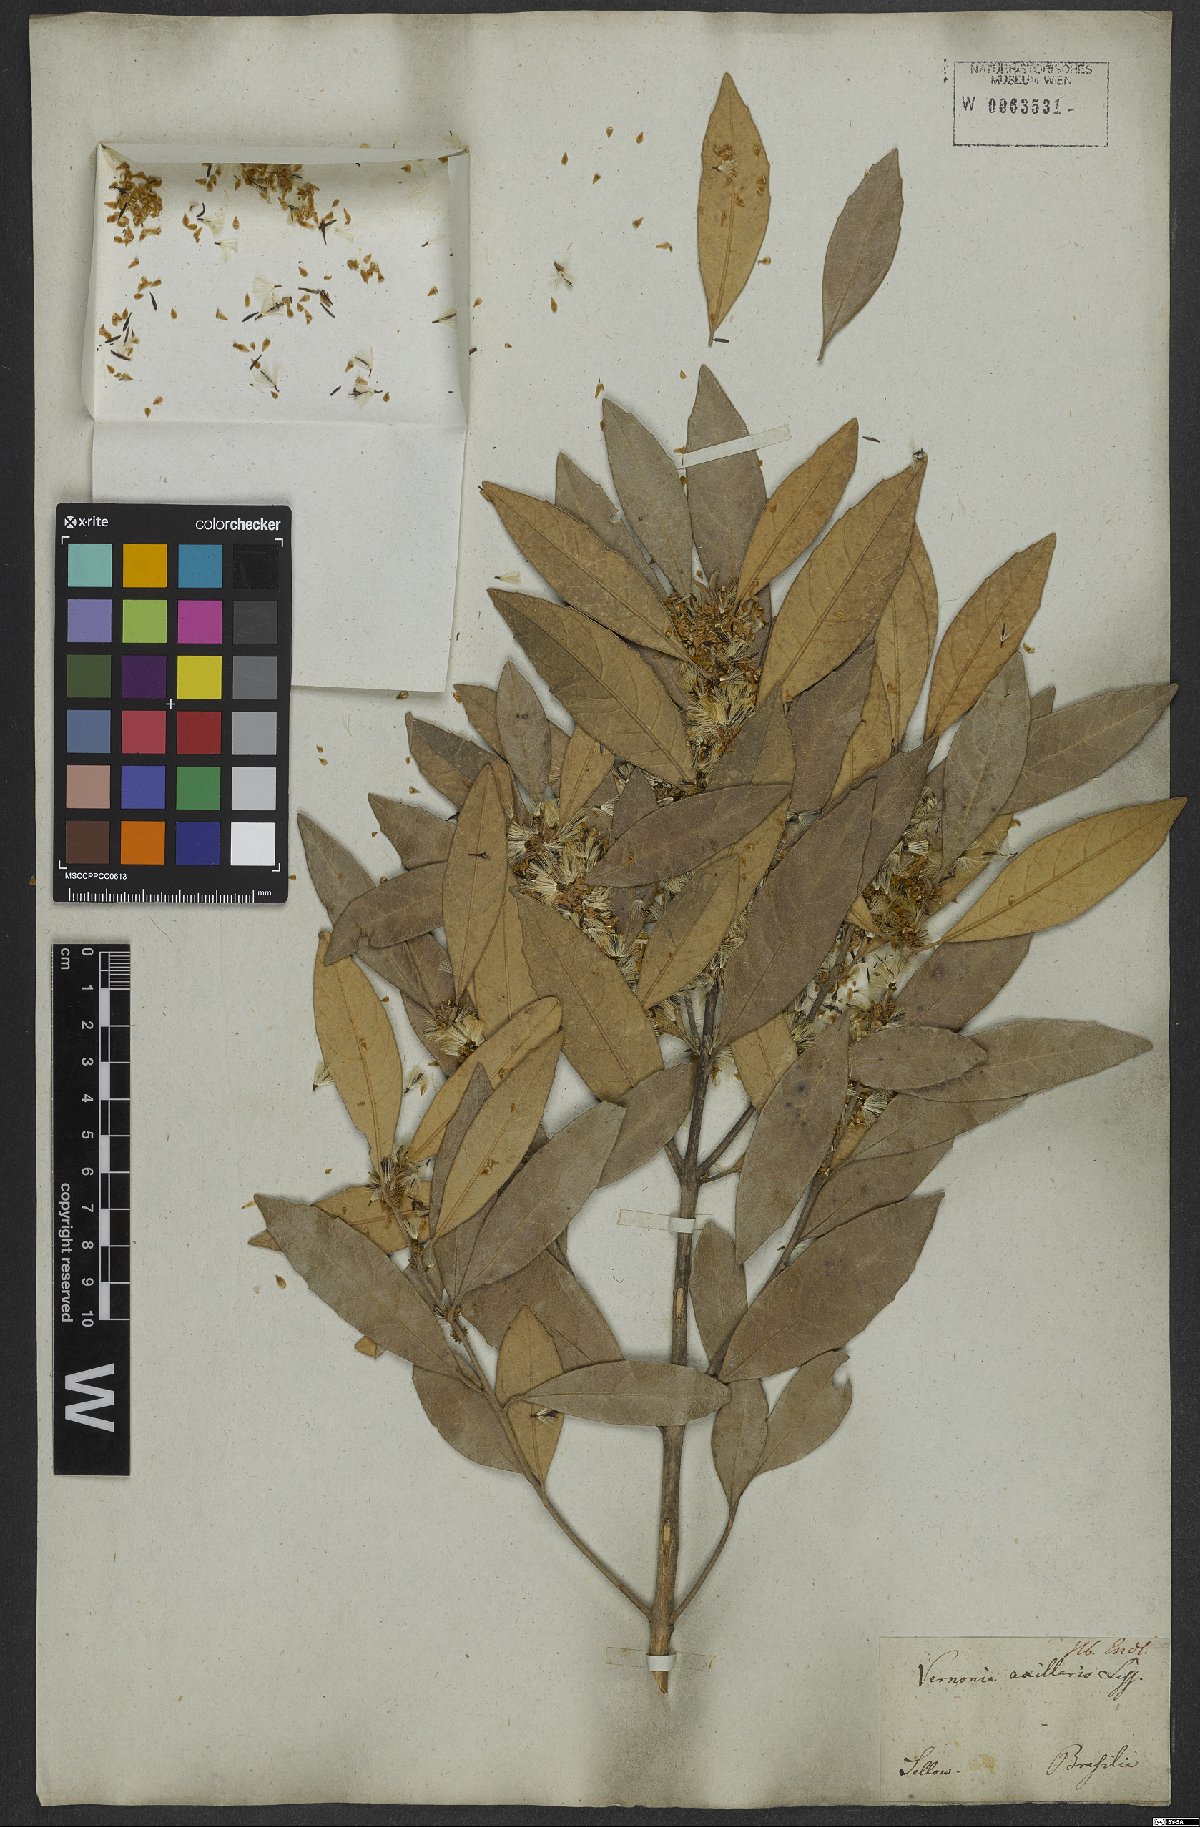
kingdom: Plantae
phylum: Tracheophyta
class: Magnoliopsida
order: Asterales
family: Asteraceae
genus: Piptocarpha
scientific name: Piptocarpha axillaris
